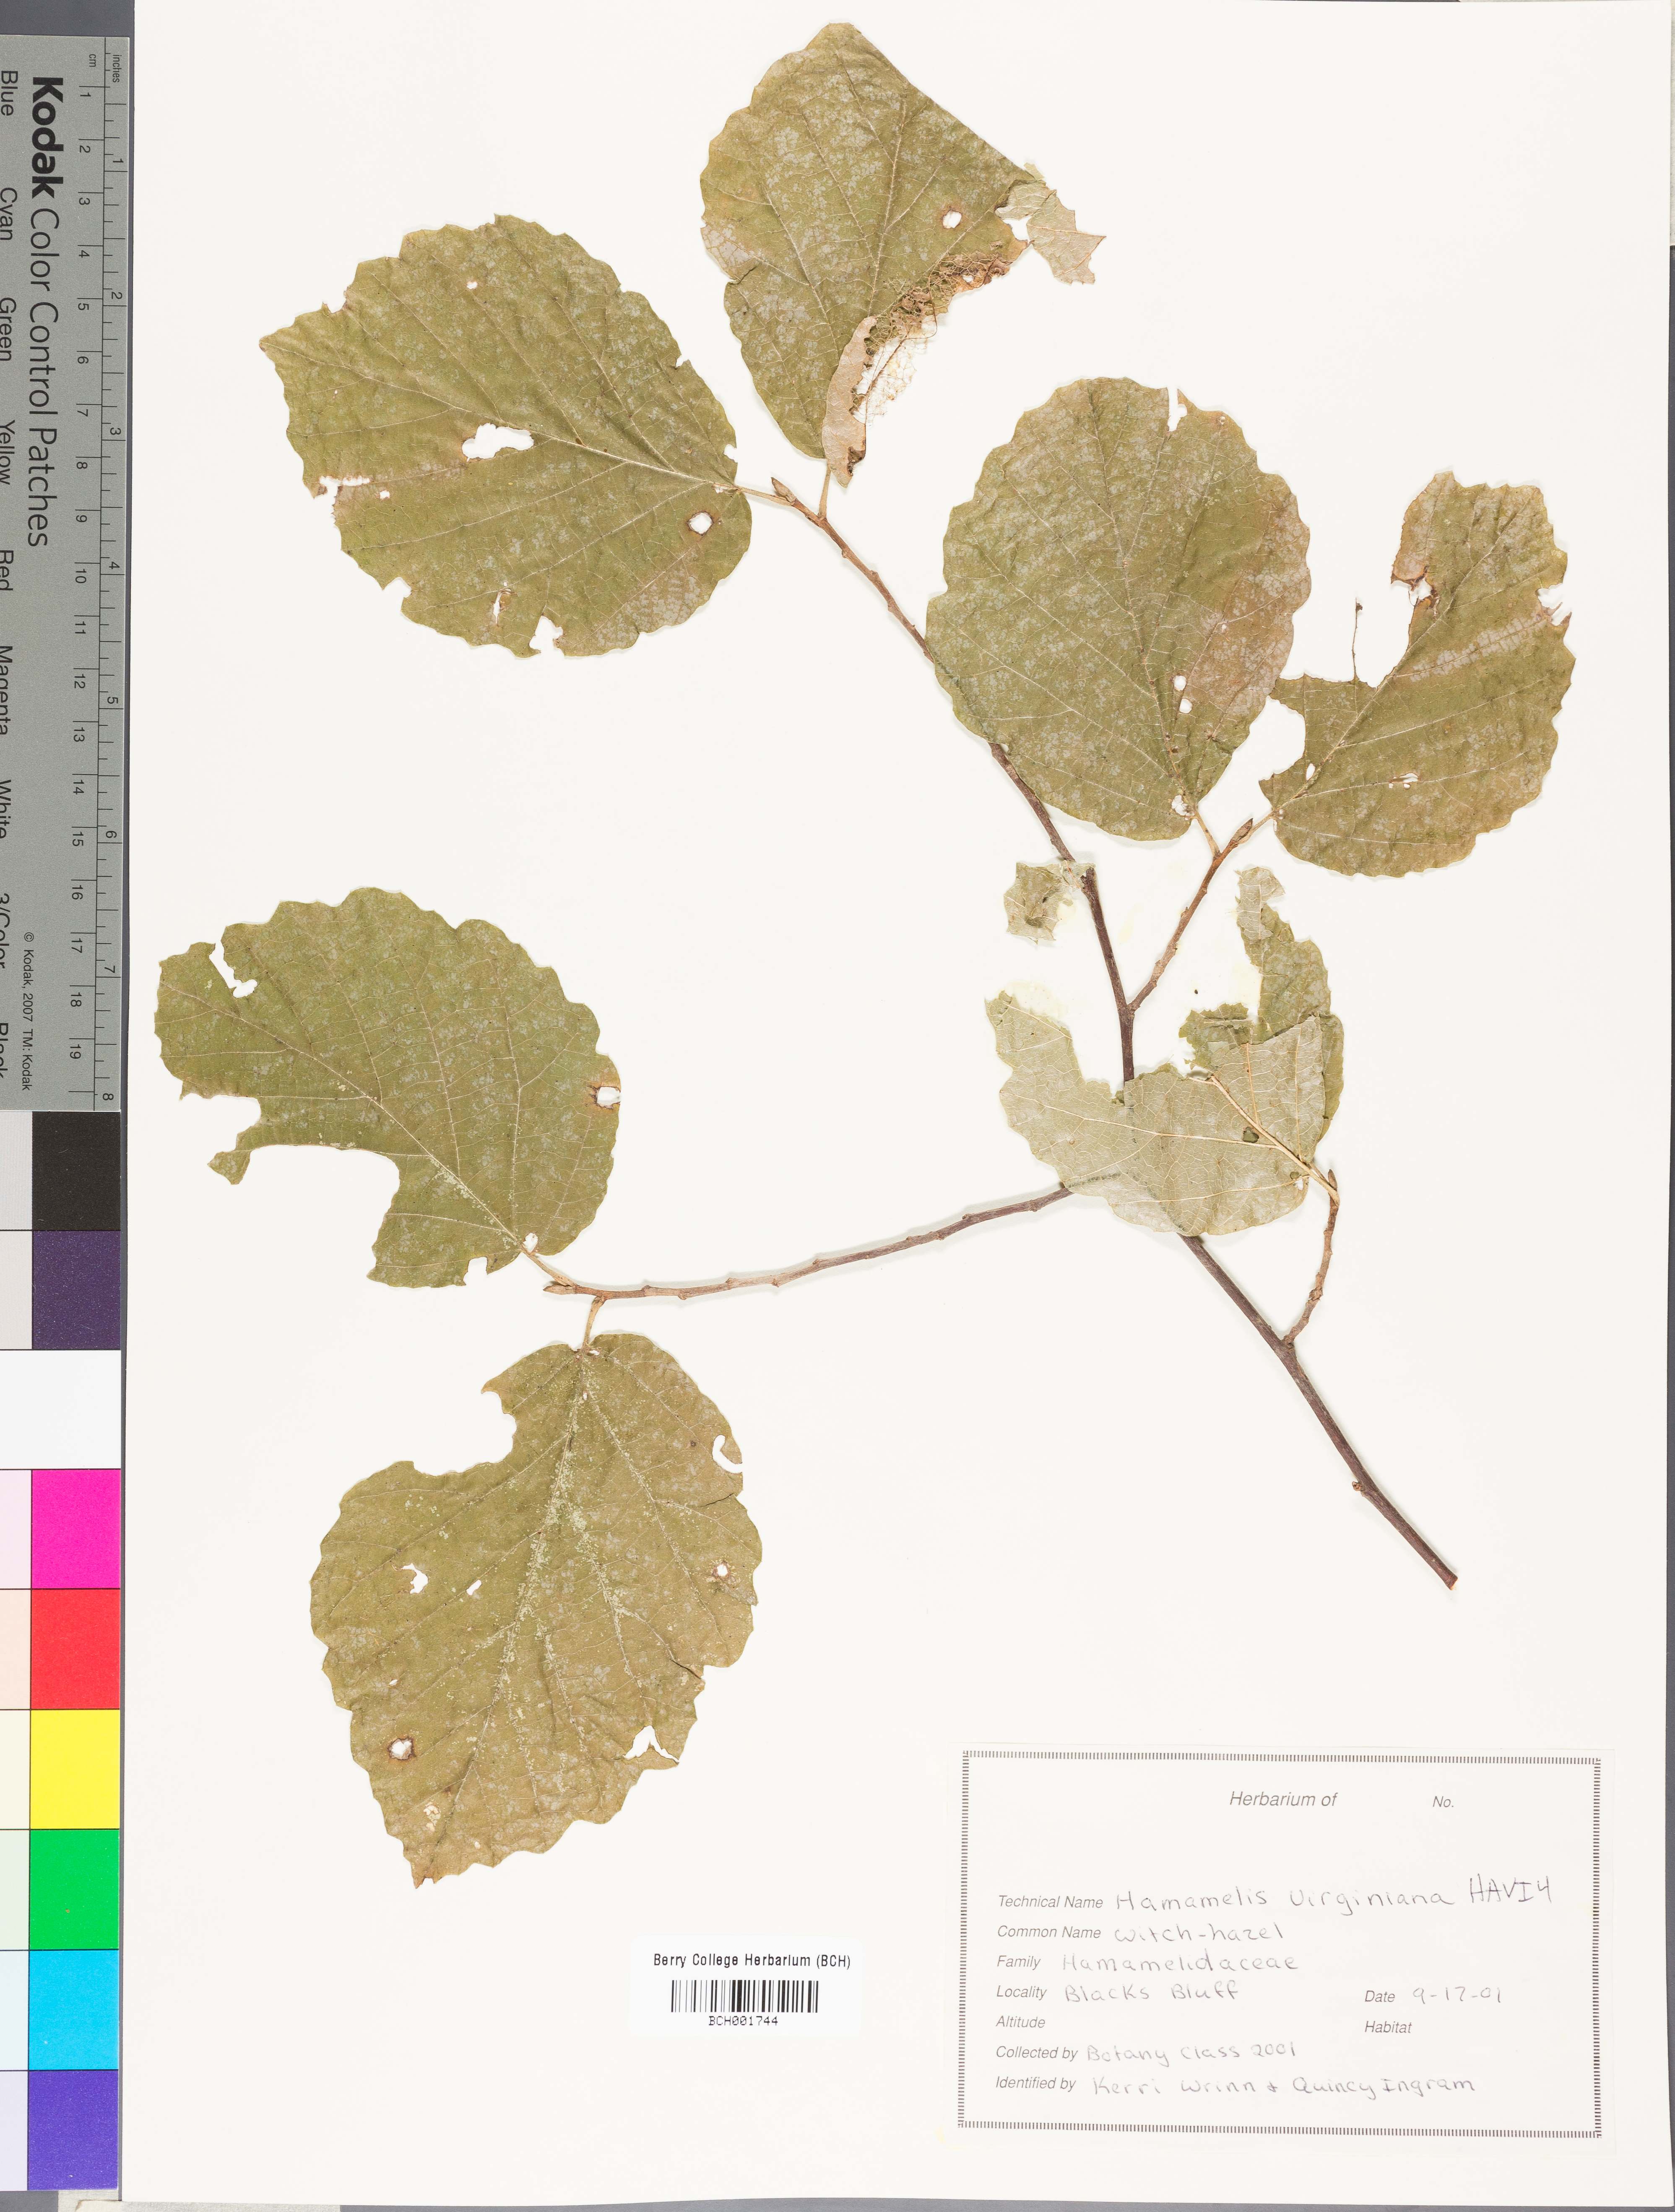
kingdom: Plantae
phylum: Tracheophyta
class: Magnoliopsida
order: Saxifragales
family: Hamamelidaceae
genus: Hamamelis
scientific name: Hamamelis virginiana
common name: Witch-hazel
